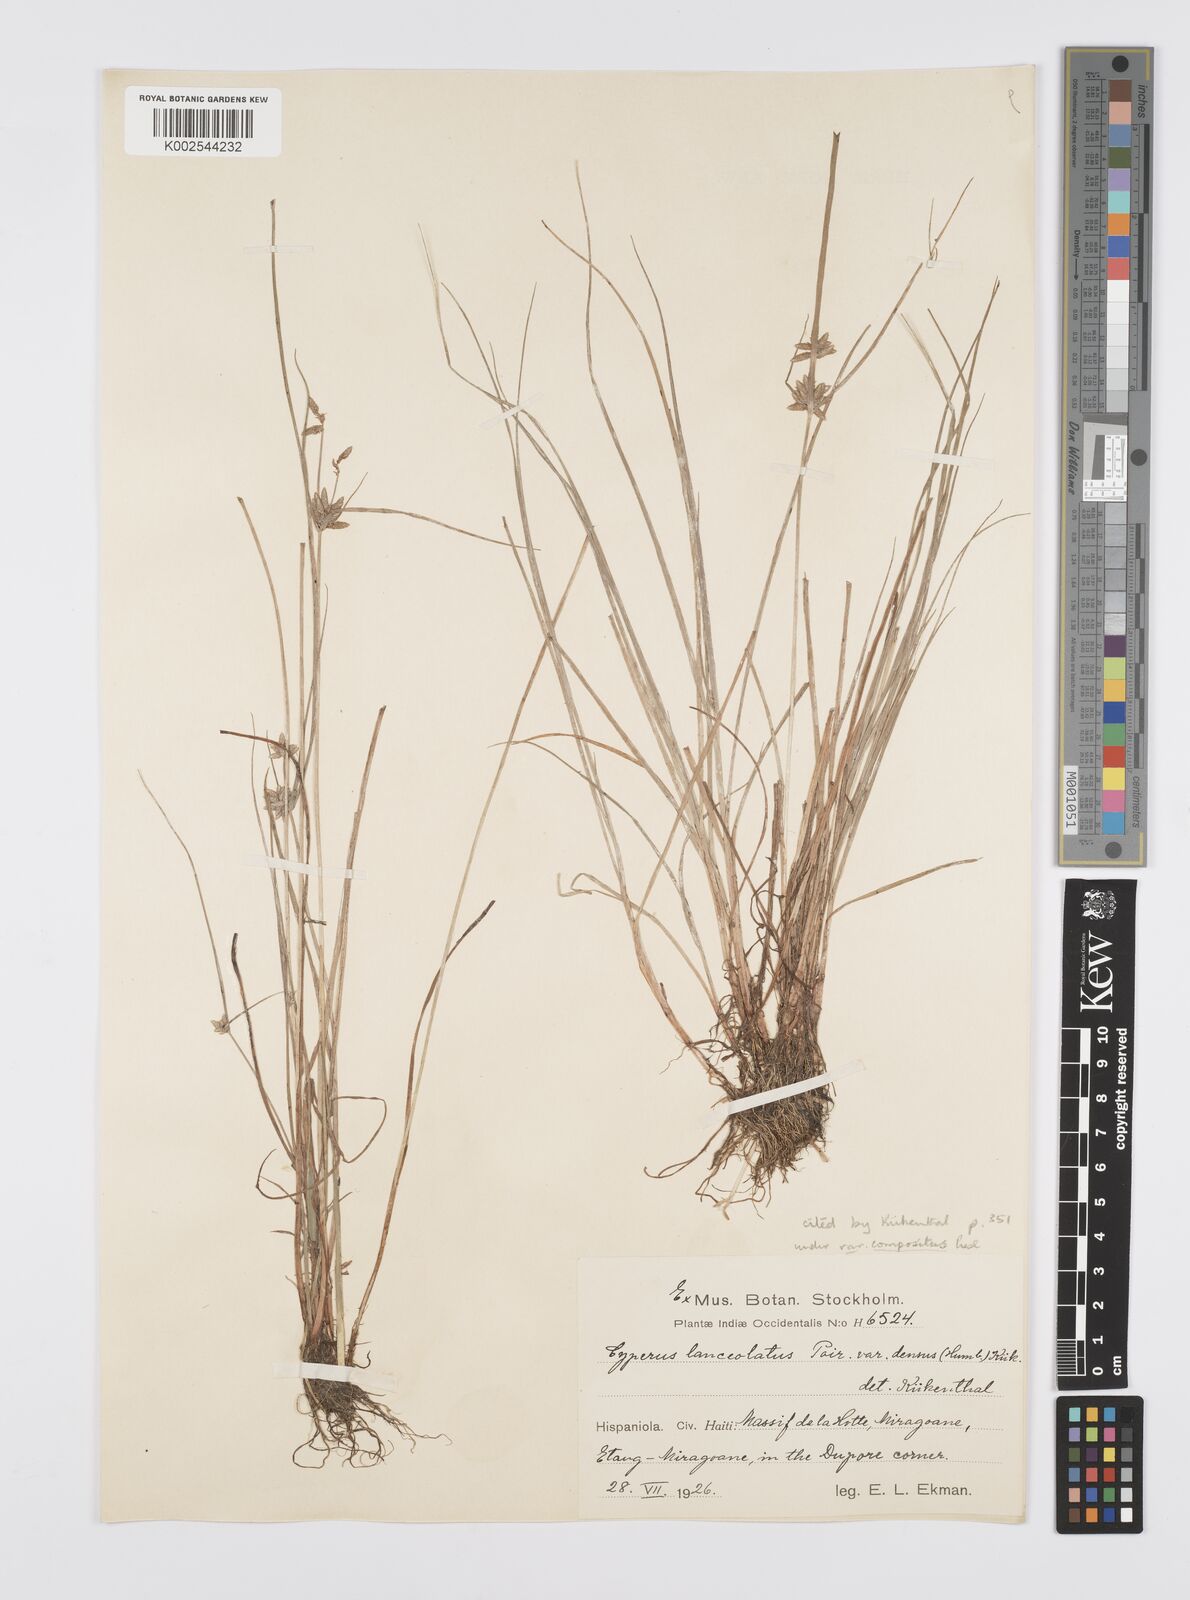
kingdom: Plantae
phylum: Tracheophyta
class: Liliopsida
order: Poales
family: Cyperaceae
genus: Cyperus
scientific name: Cyperus
